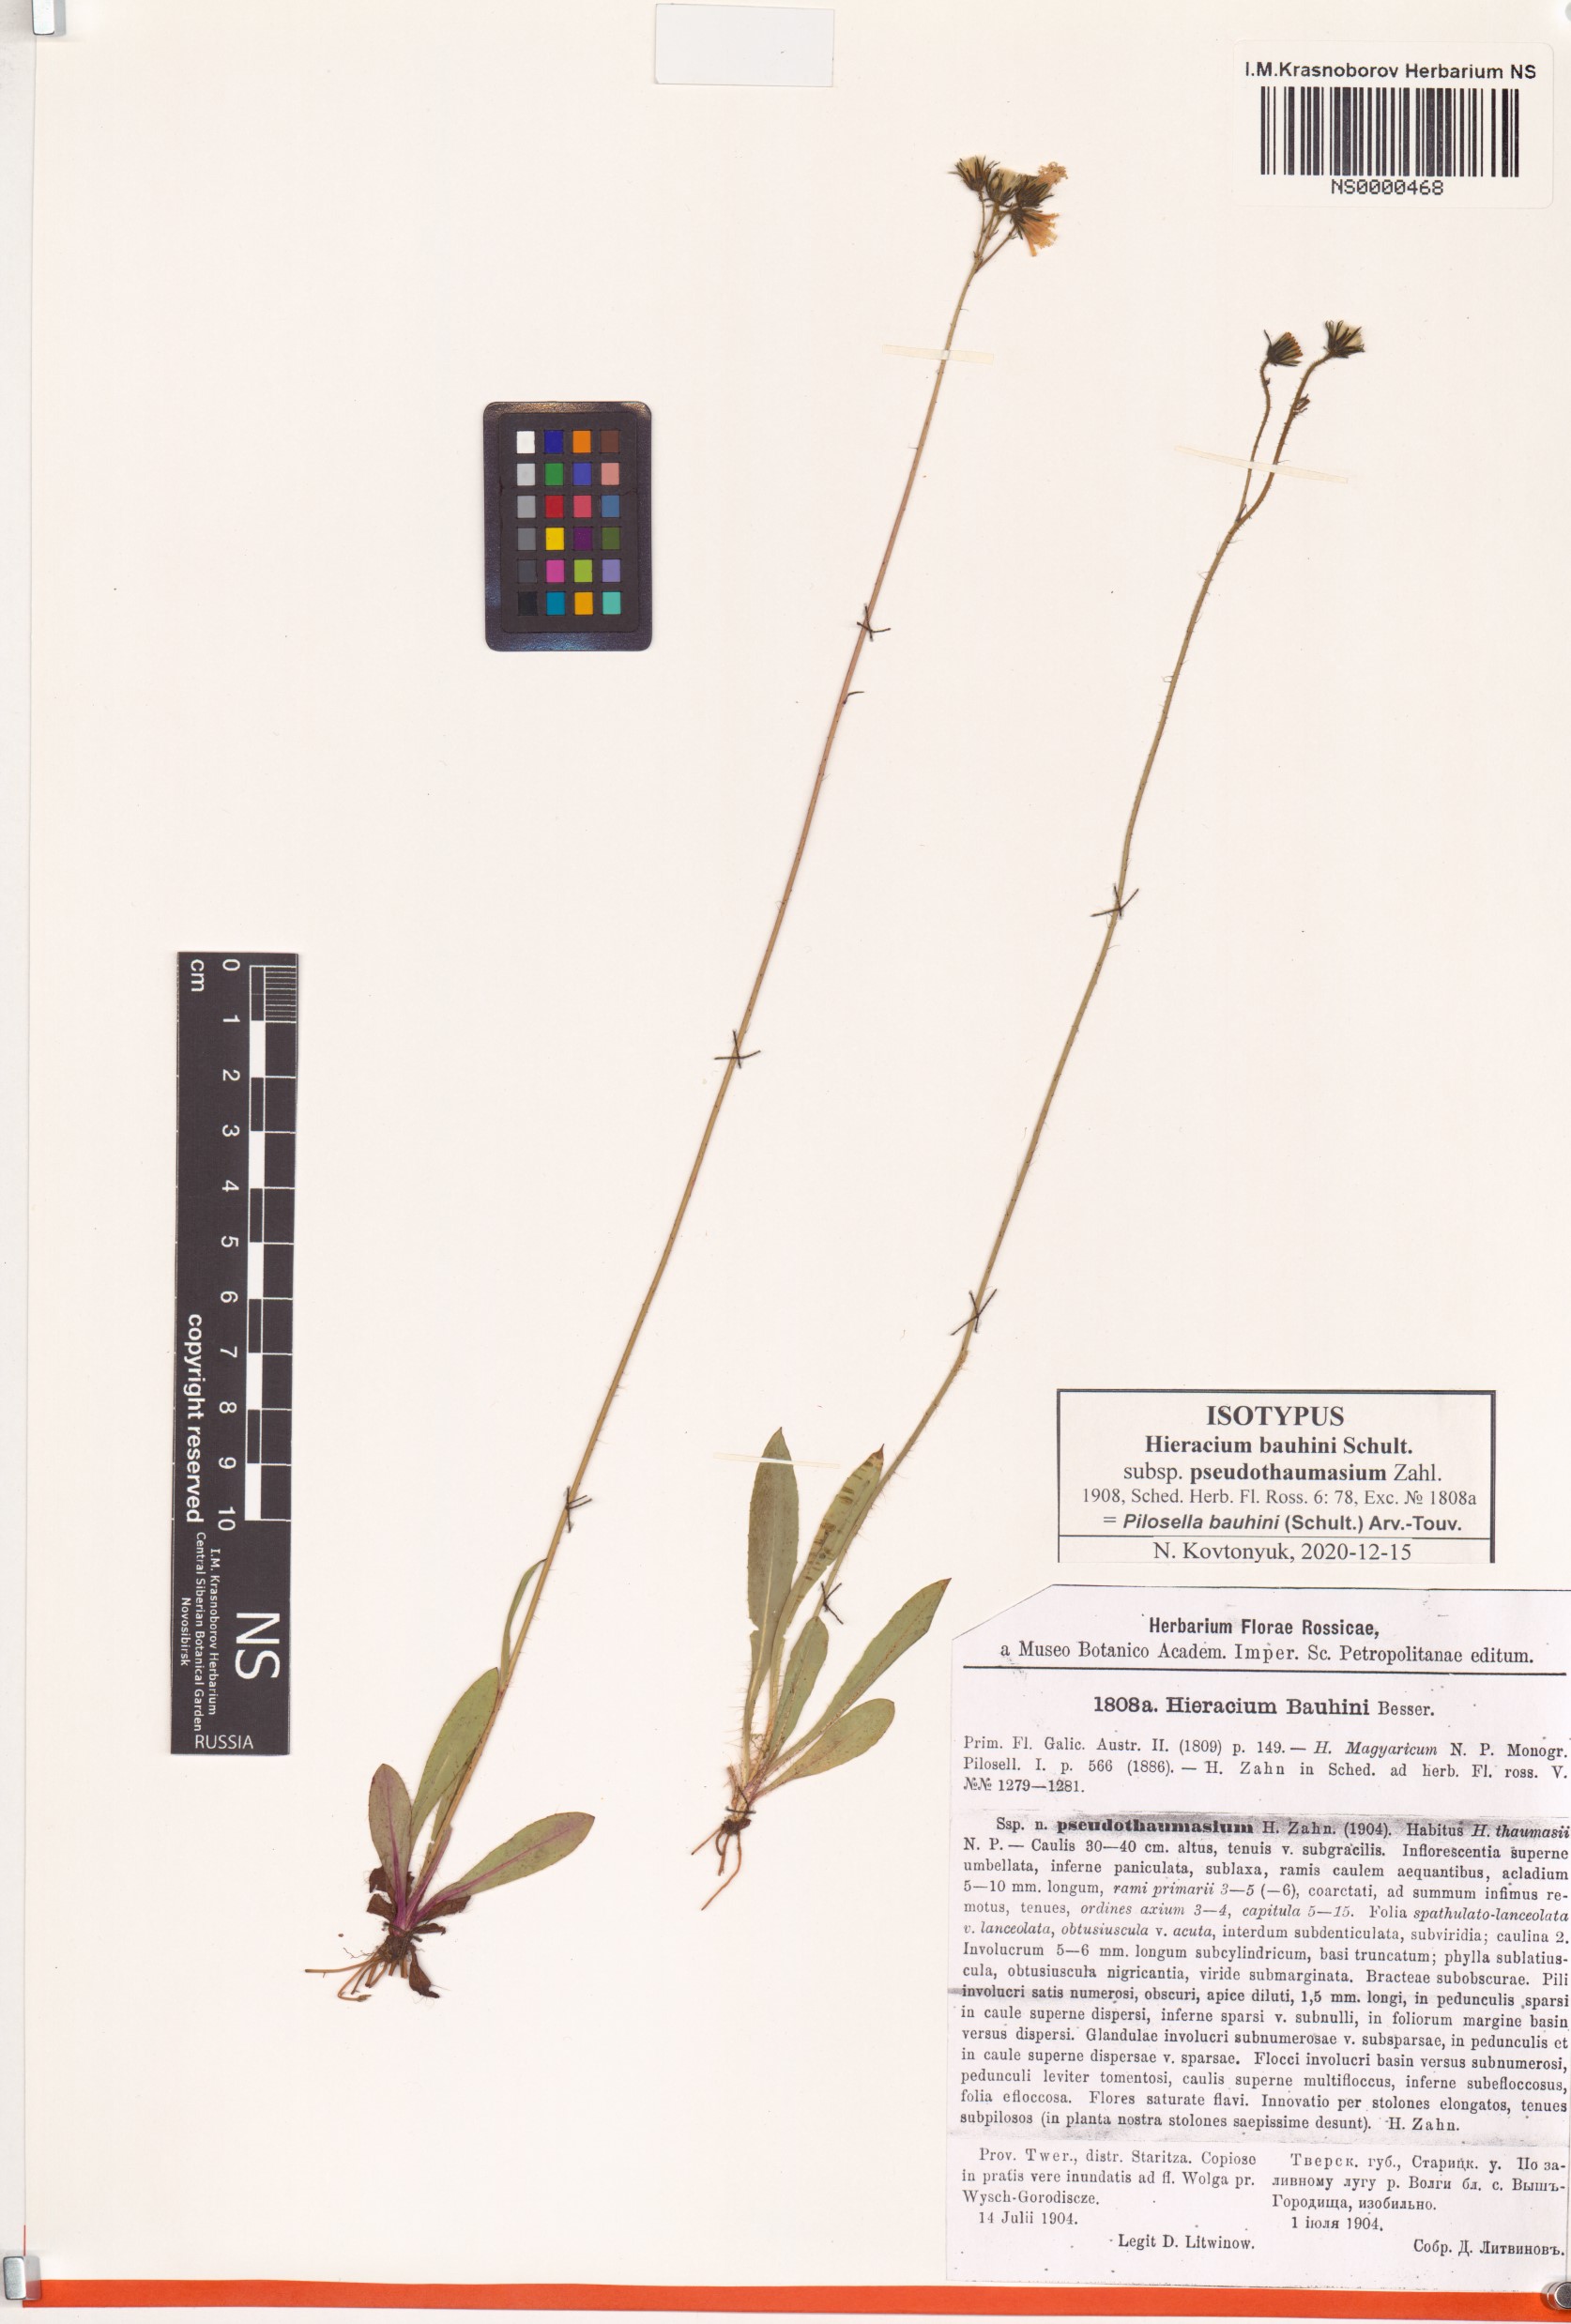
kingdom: Plantae
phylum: Tracheophyta
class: Magnoliopsida
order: Asterales
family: Asteraceae
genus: Pilosella
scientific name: Pilosella bauhini
